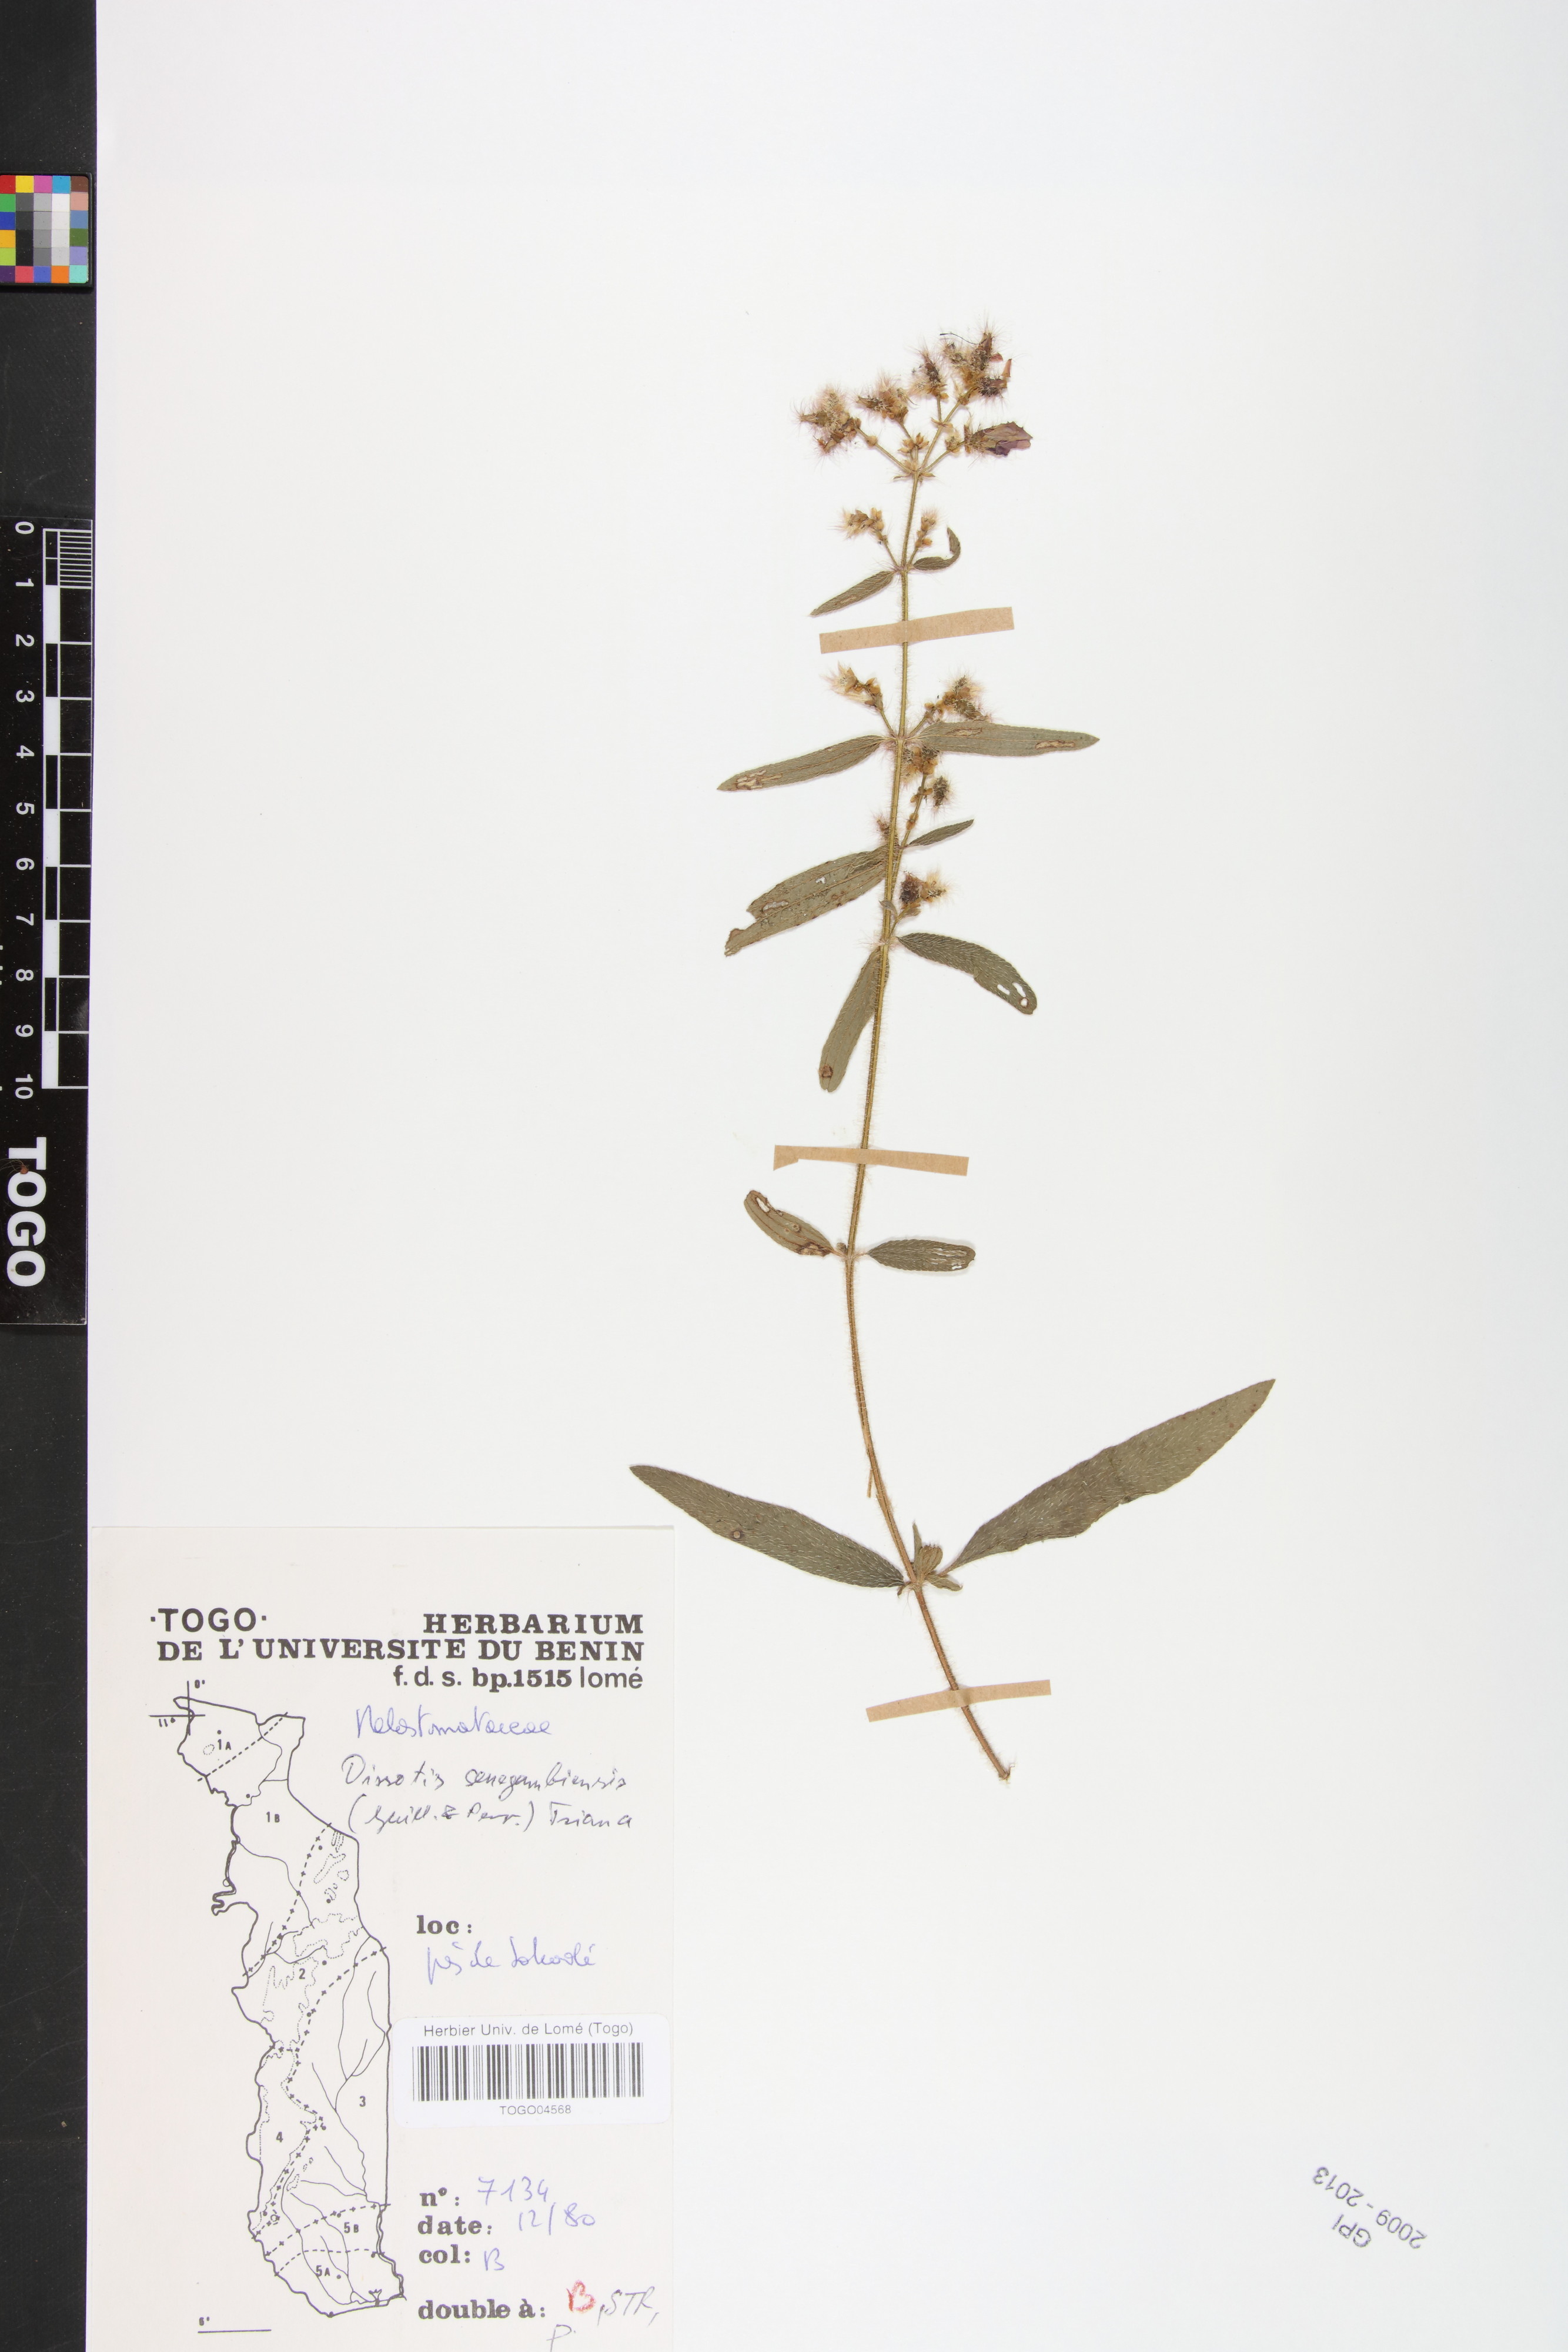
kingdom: Plantae
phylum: Tracheophyta
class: Magnoliopsida
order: Myrtales
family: Melastomataceae
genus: Antherotoma
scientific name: Antherotoma irvingiana
